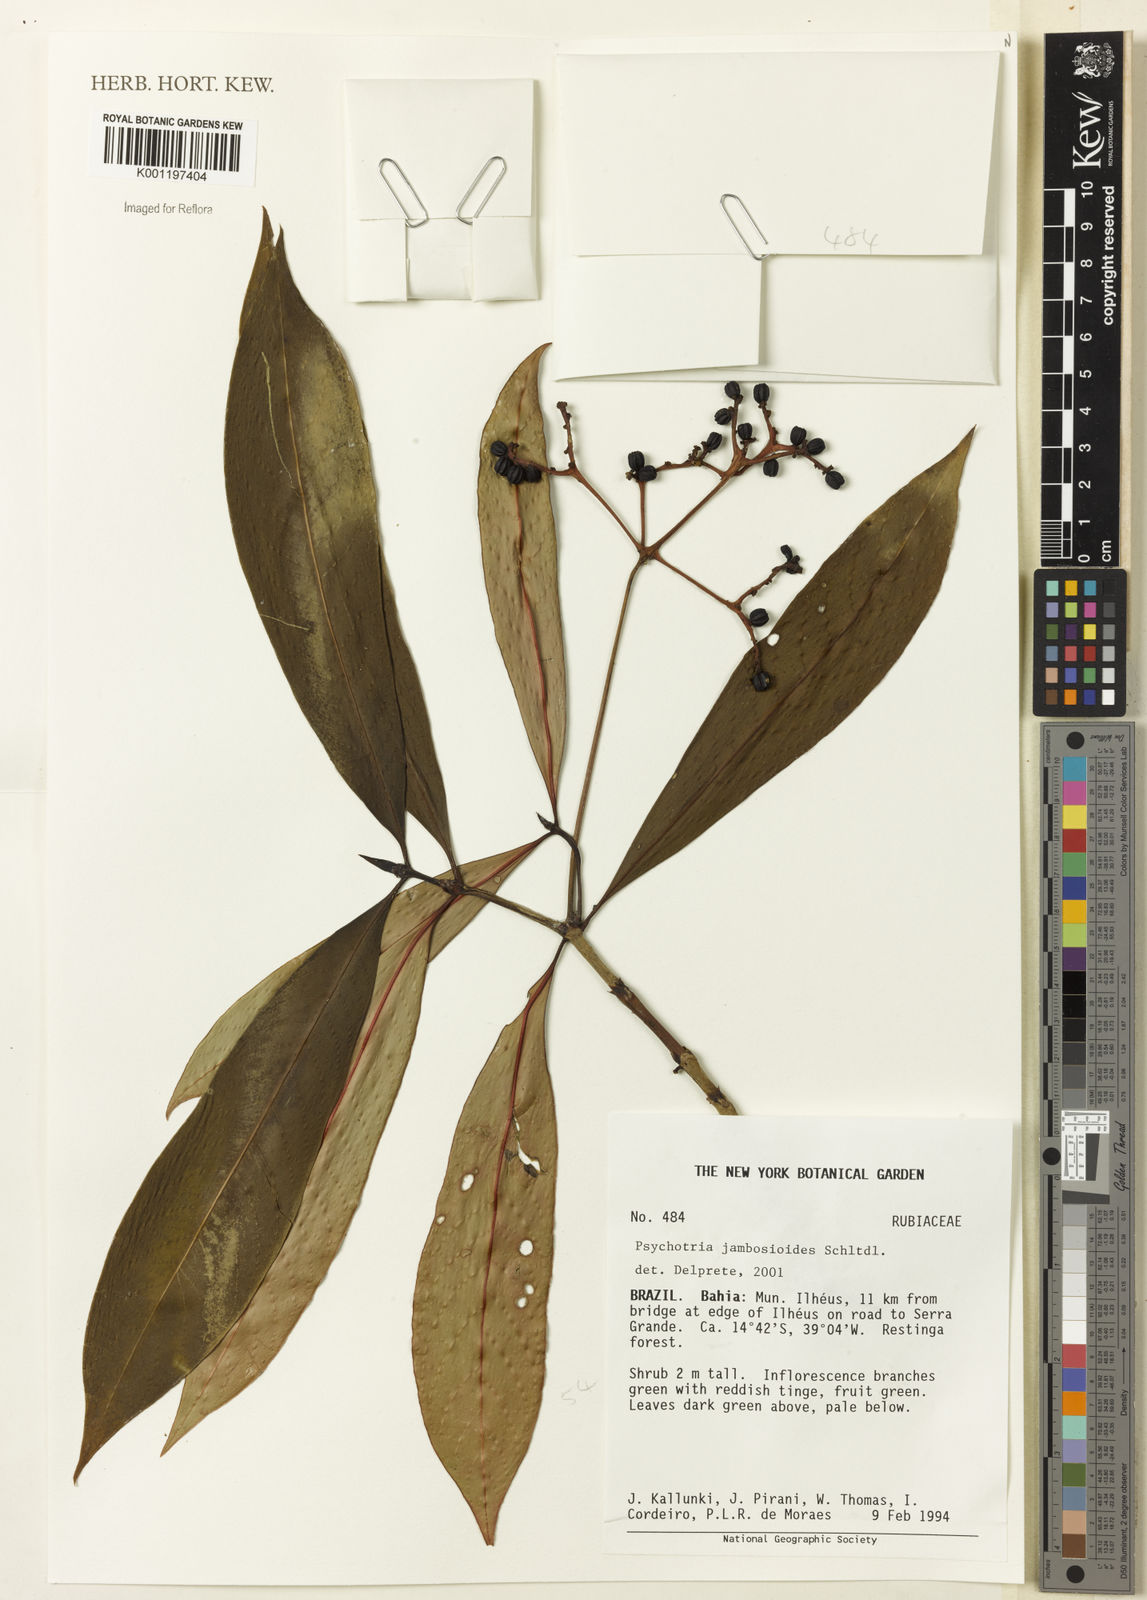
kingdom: Plantae
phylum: Tracheophyta
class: Magnoliopsida
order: Gentianales
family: Rubiaceae
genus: Palicourea
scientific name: Palicourea jambosioides
